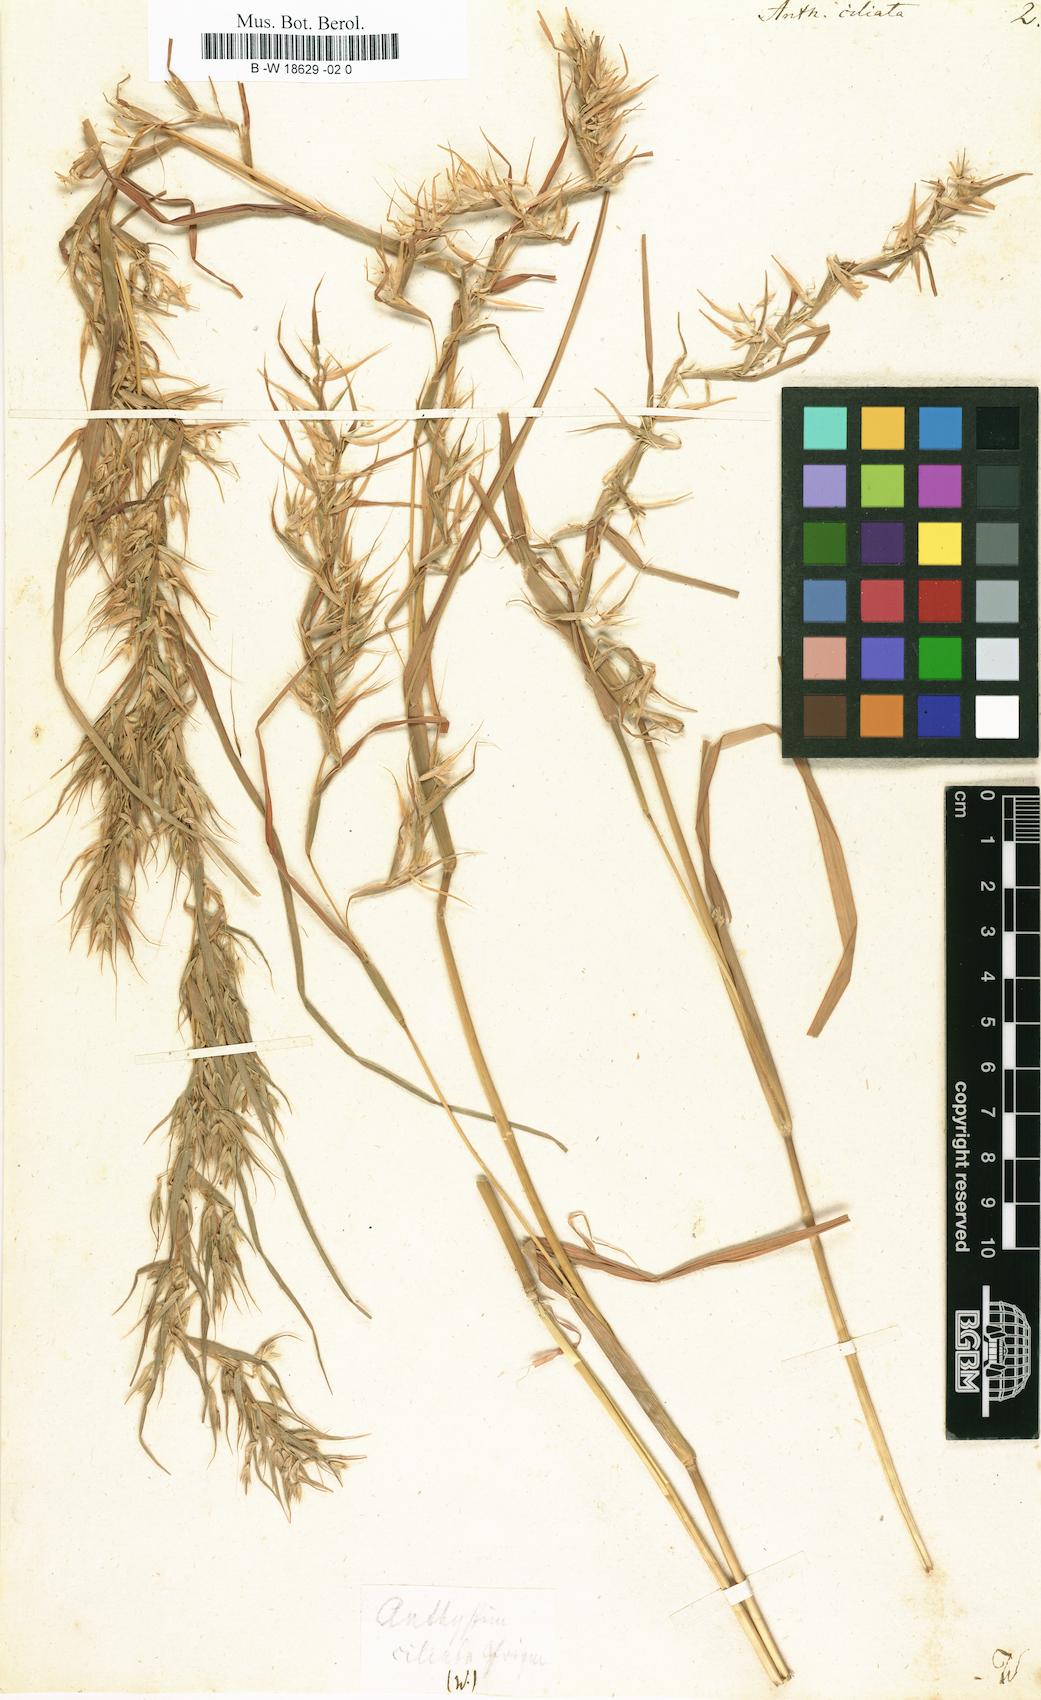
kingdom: Plantae
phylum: Tracheophyta
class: Liliopsida
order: Poales
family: Poaceae
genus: Themeda
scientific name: Themeda
